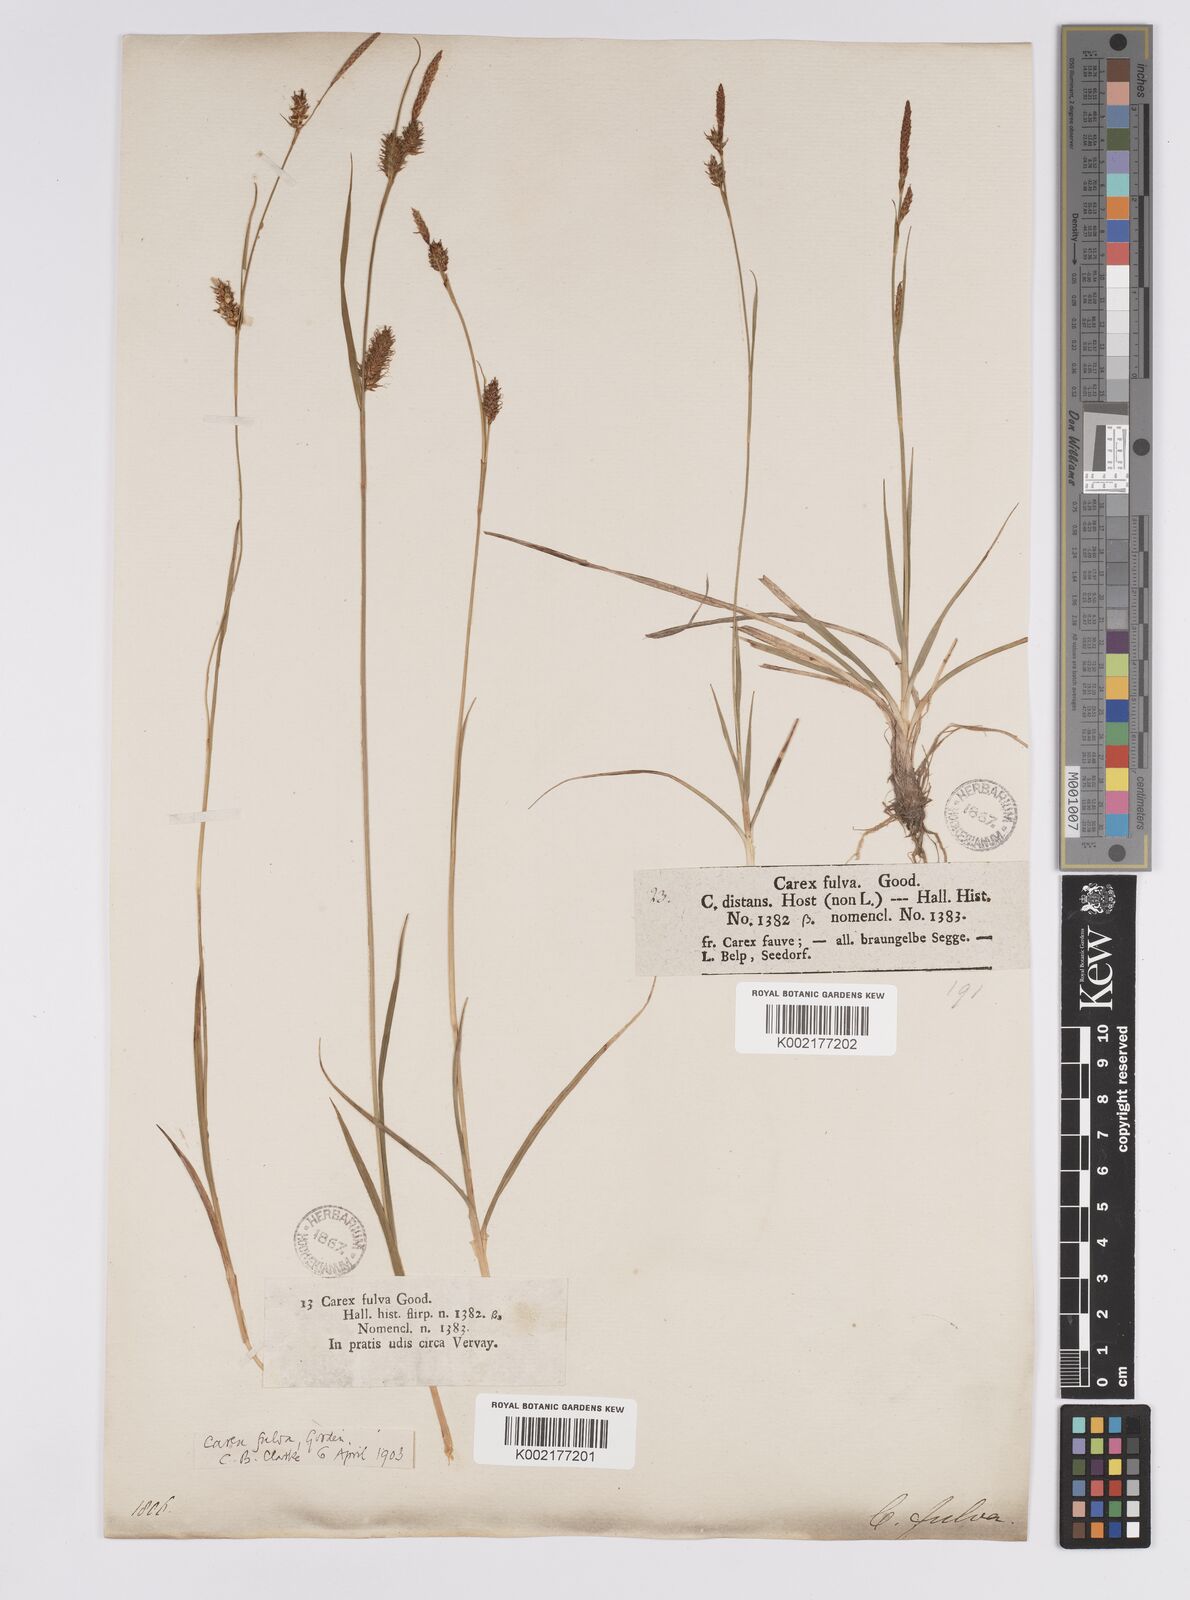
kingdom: Plantae
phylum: Tracheophyta
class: Liliopsida
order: Poales
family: Cyperaceae
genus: Carex
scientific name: Carex hostiana
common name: Tawny sedge
